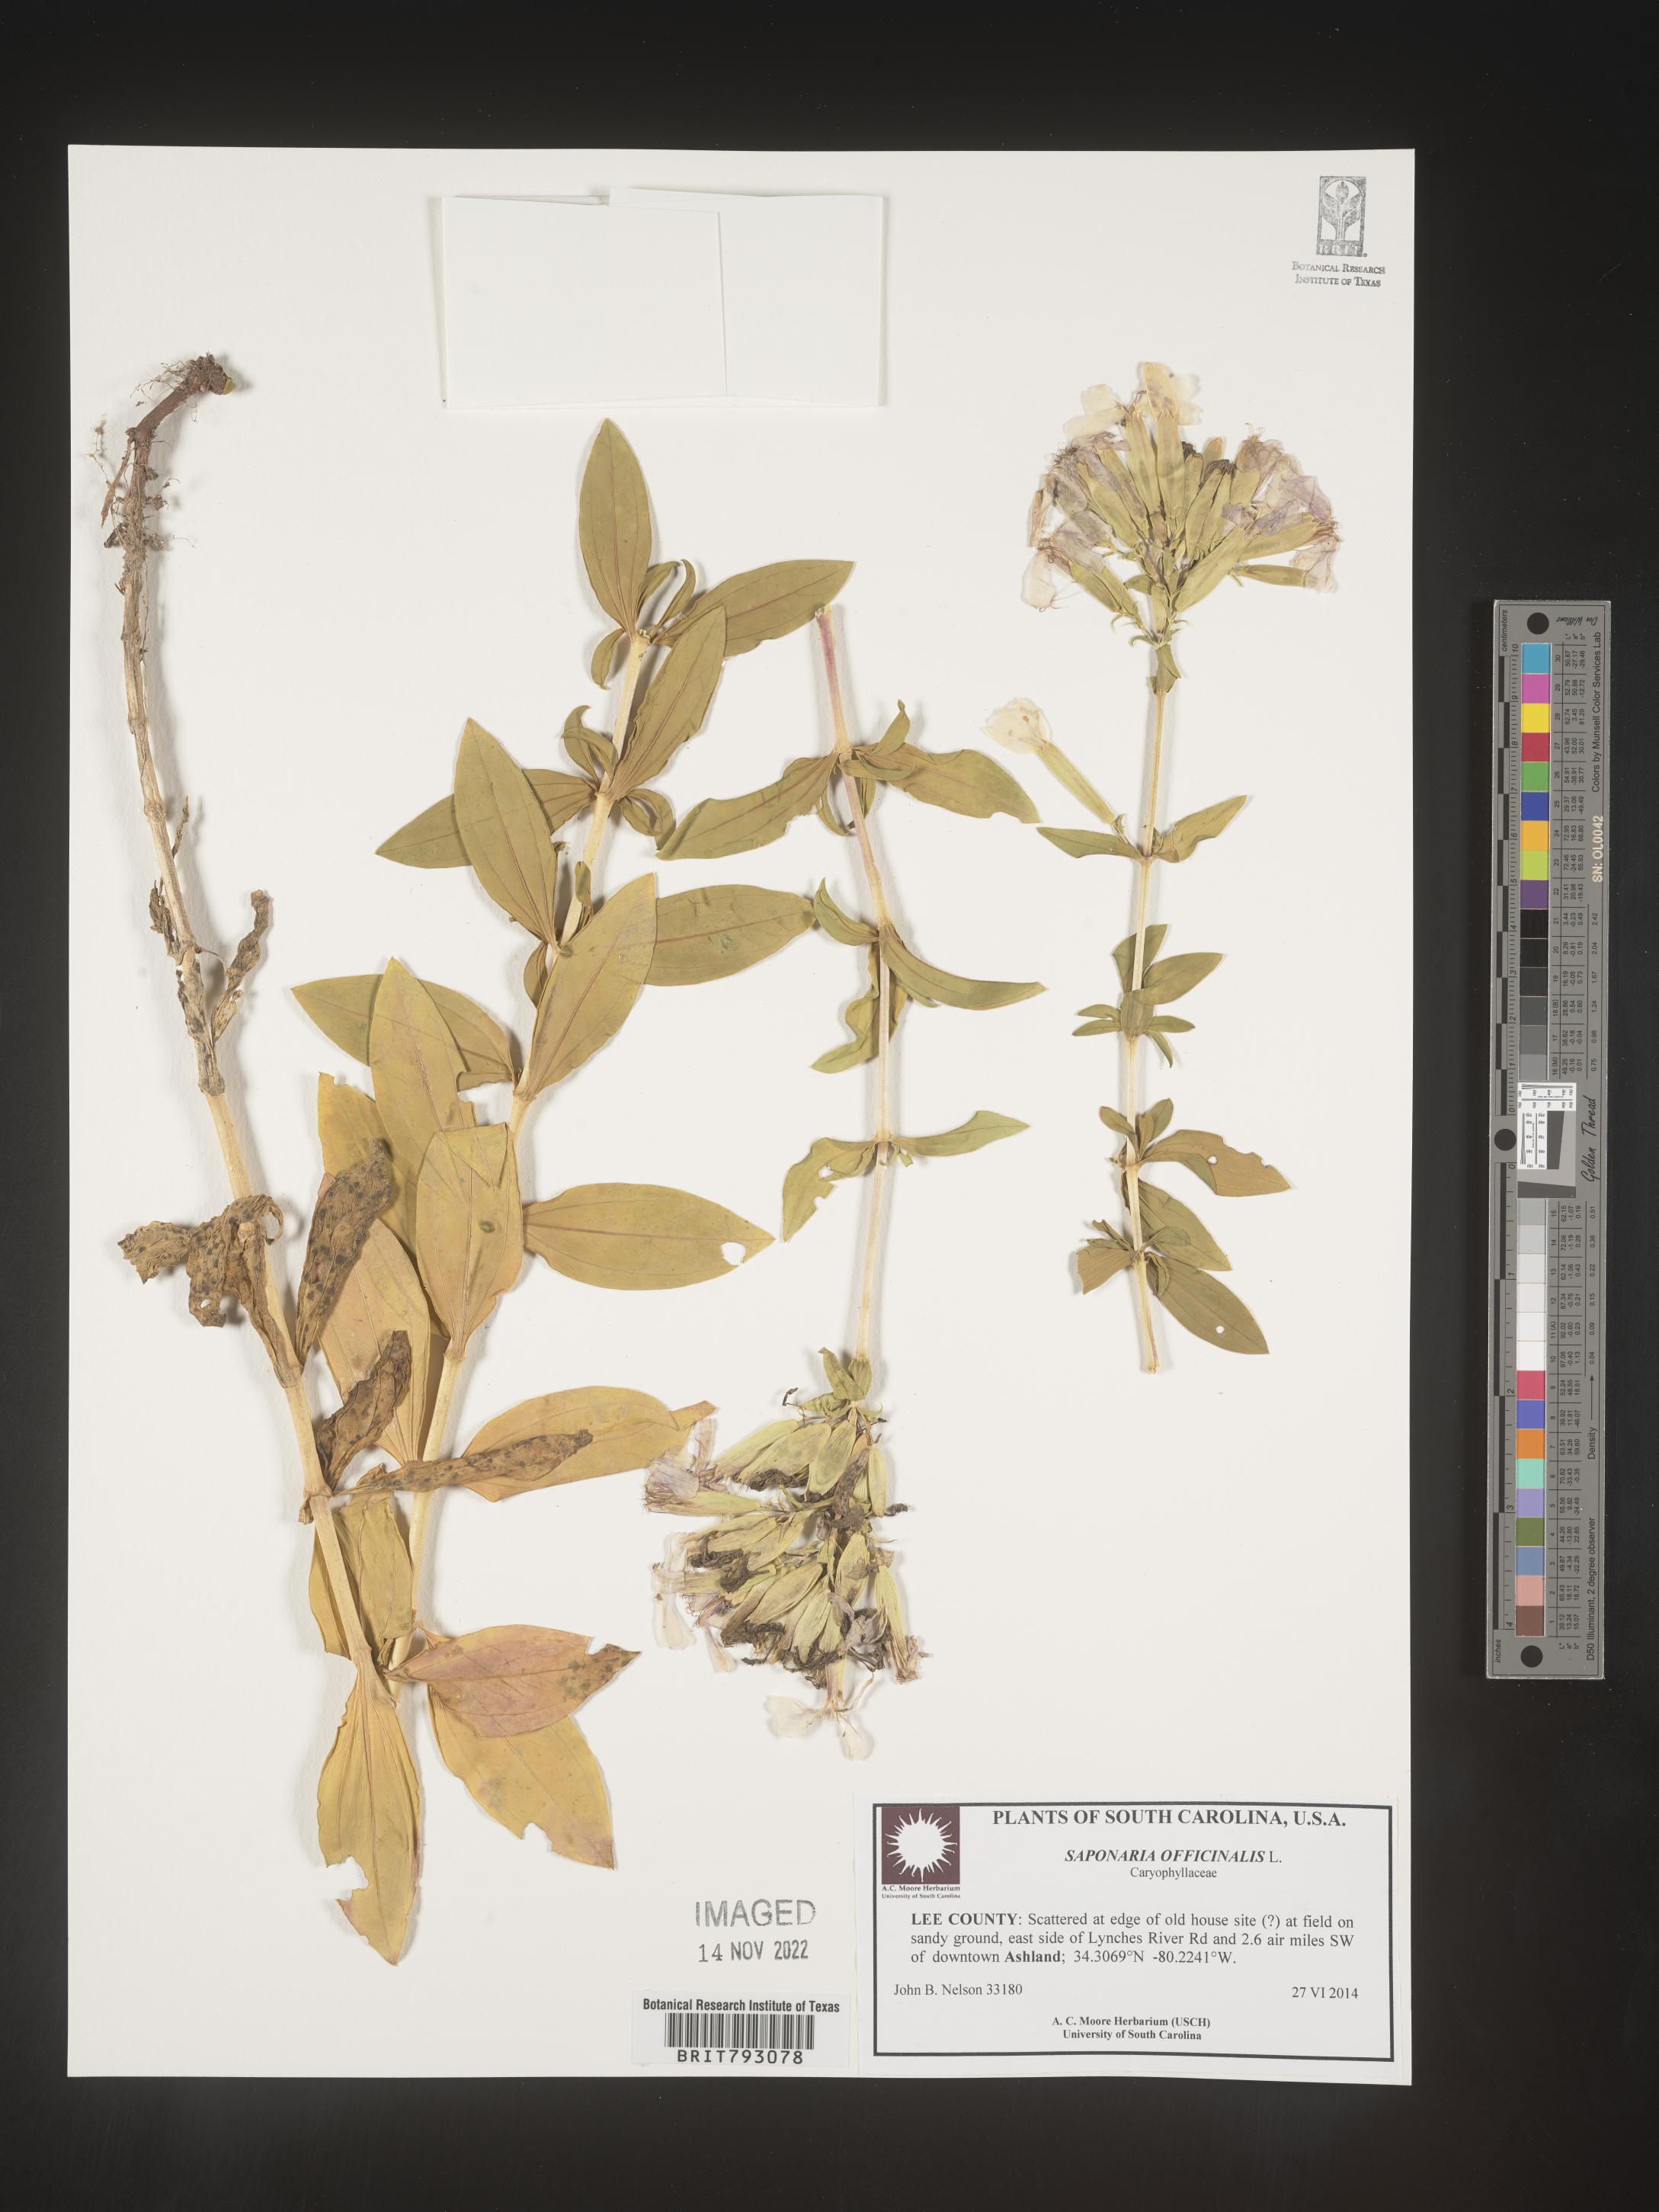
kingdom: Plantae
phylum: Tracheophyta
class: Magnoliopsida
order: Caryophyllales
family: Caryophyllaceae
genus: Saponaria
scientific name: Saponaria officinalis
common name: Soapwort
